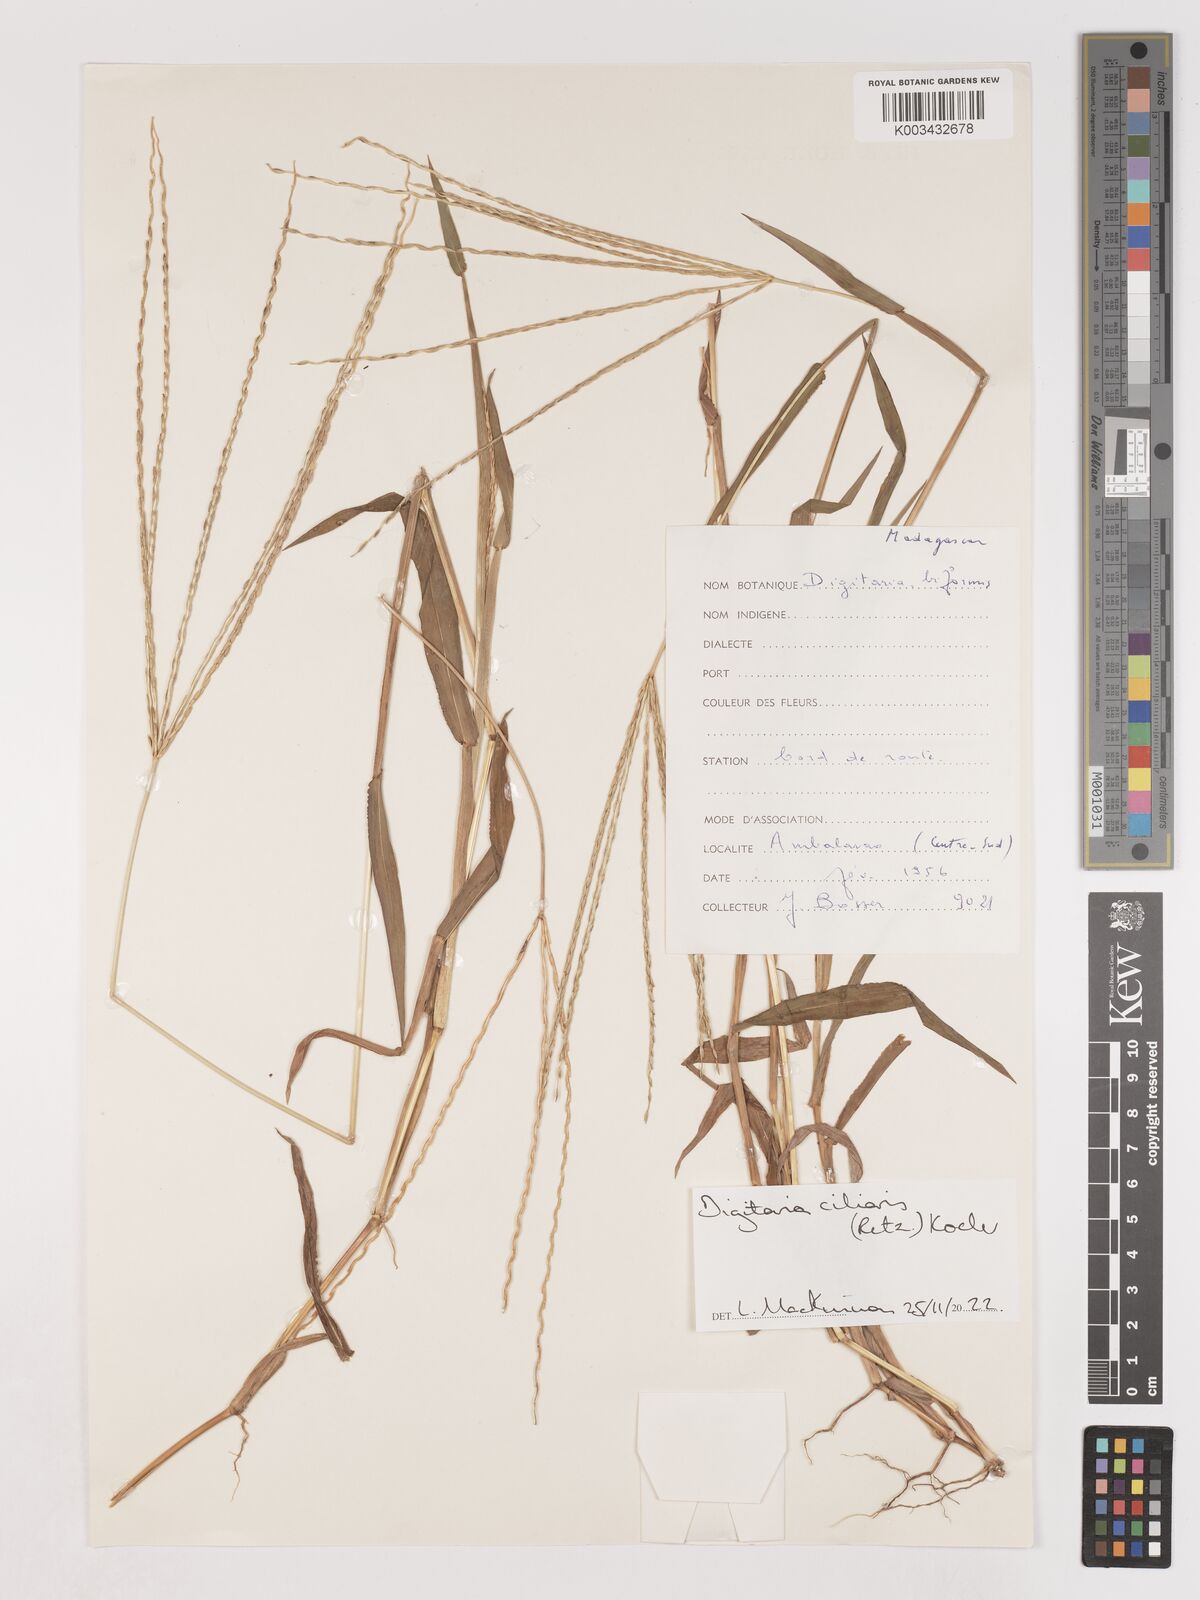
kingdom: Plantae
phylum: Tracheophyta
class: Liliopsida
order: Poales
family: Poaceae
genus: Digitaria
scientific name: Digitaria ciliaris
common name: Tropical finger-grass
